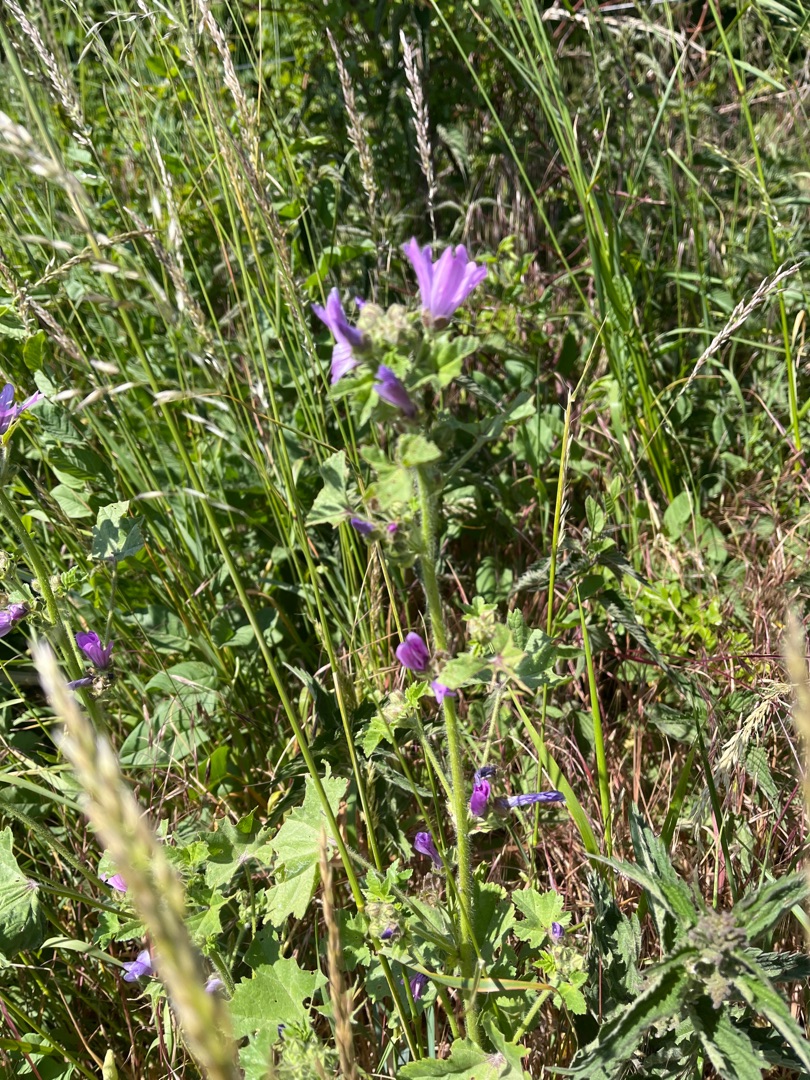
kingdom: Plantae
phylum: Tracheophyta
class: Magnoliopsida
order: Malvales
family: Malvaceae
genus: Malva
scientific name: Malva sylvestris
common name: Almindelig katost
